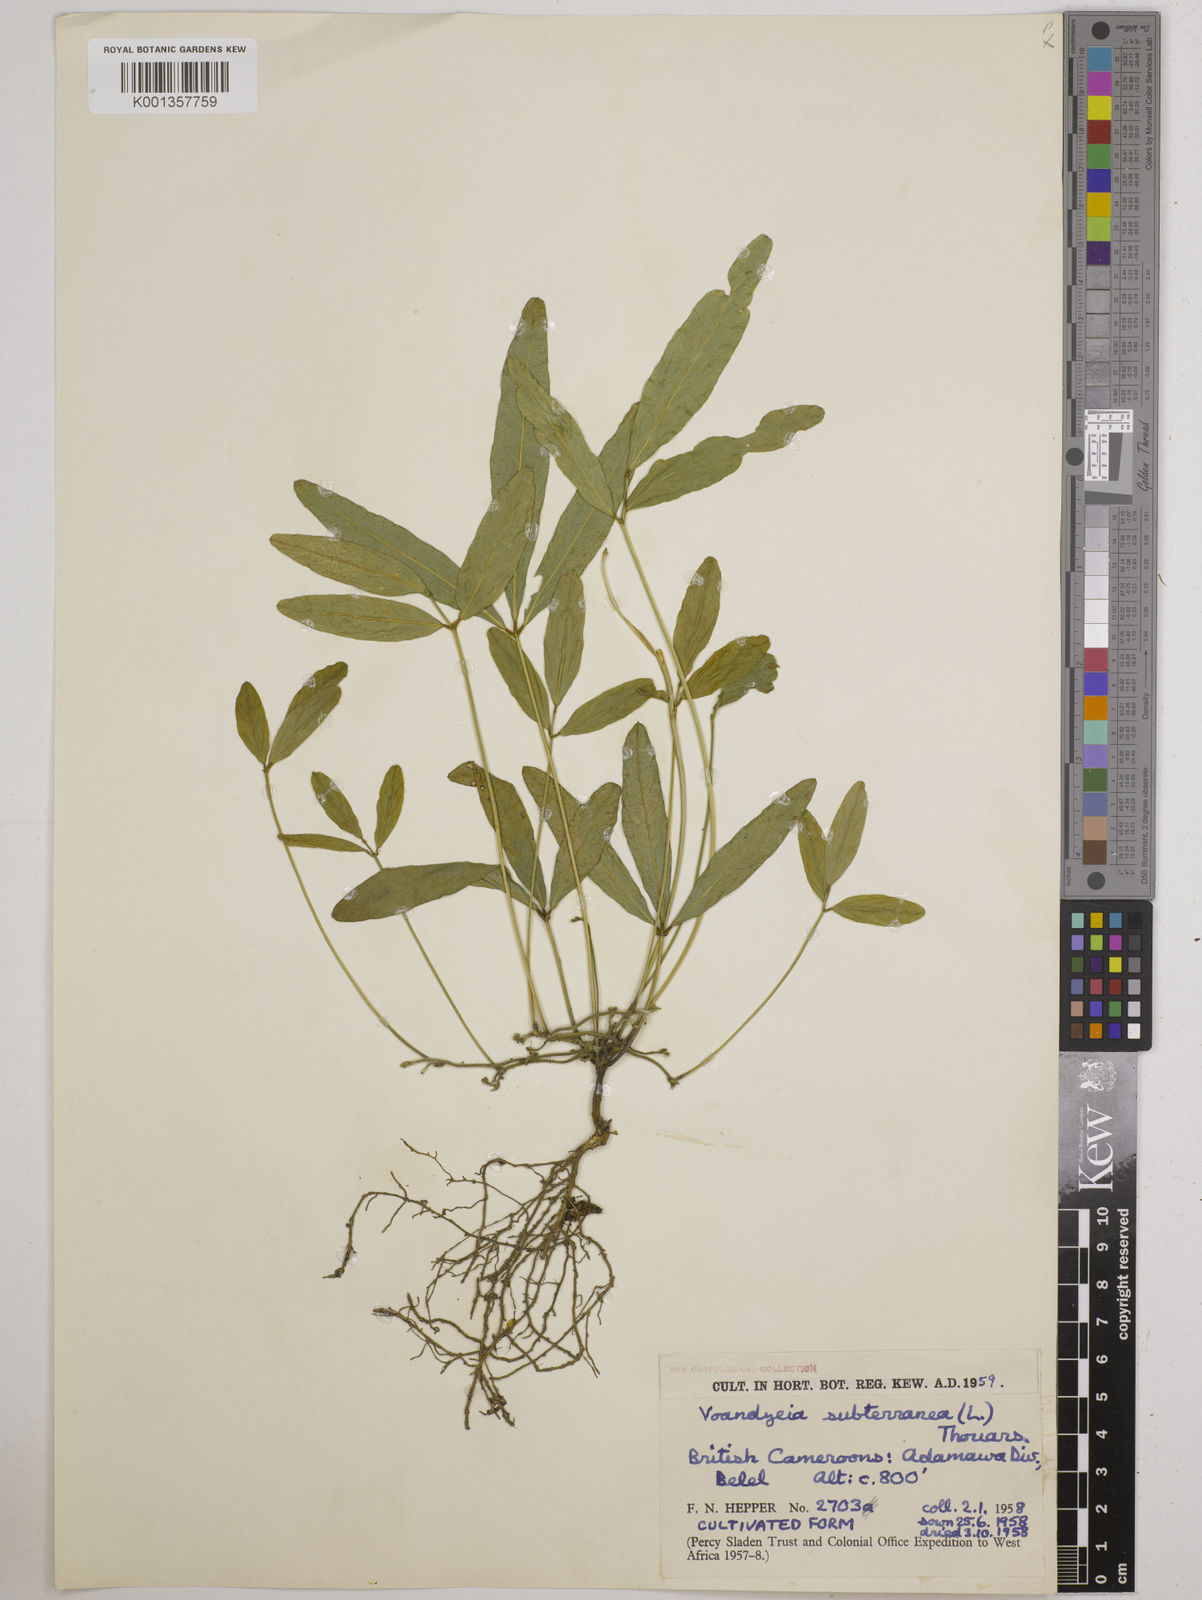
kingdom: Plantae
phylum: Tracheophyta
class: Magnoliopsida
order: Fabales
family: Fabaceae
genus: Vigna
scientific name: Vigna subterranea
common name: Bambara groundnut
